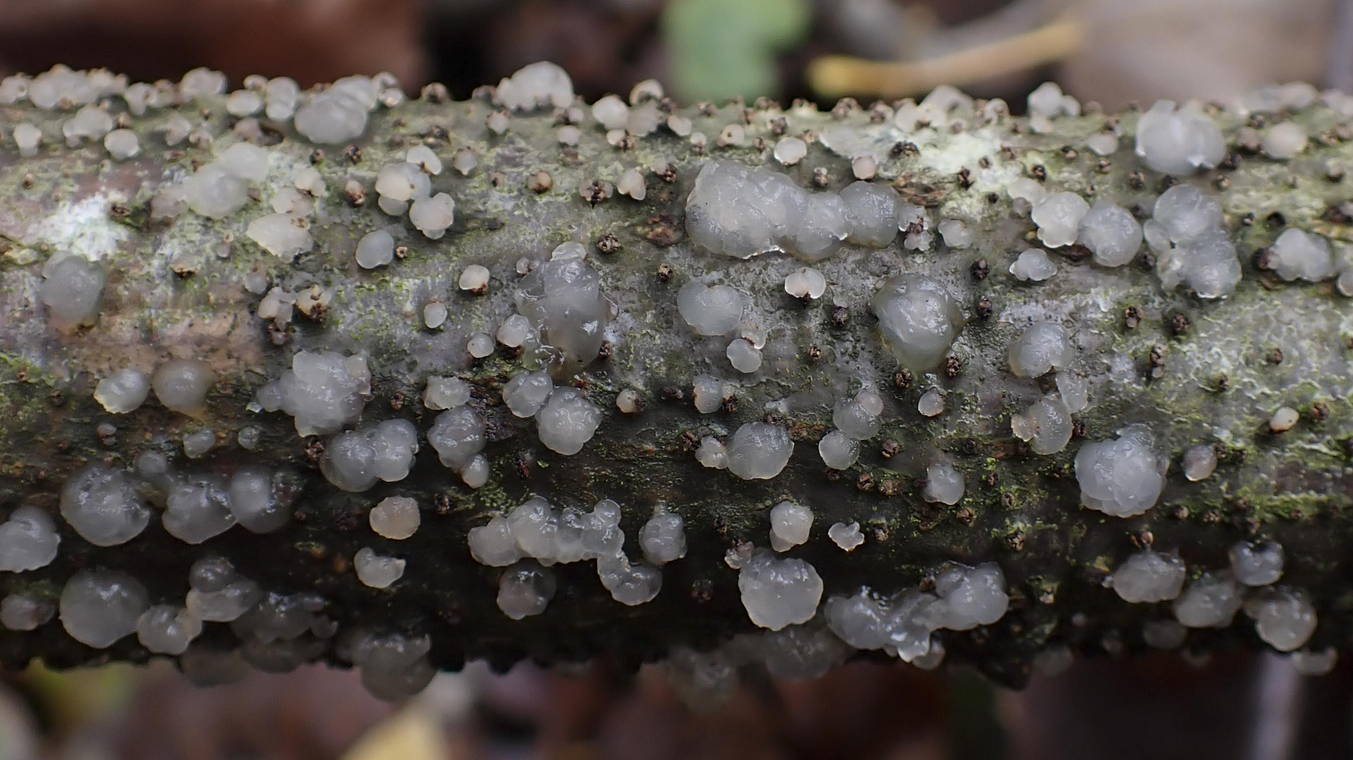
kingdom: Fungi
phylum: Basidiomycota
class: Tremellomycetes
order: Tremellales
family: Tremellaceae
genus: Tremella
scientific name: Tremella globispora
